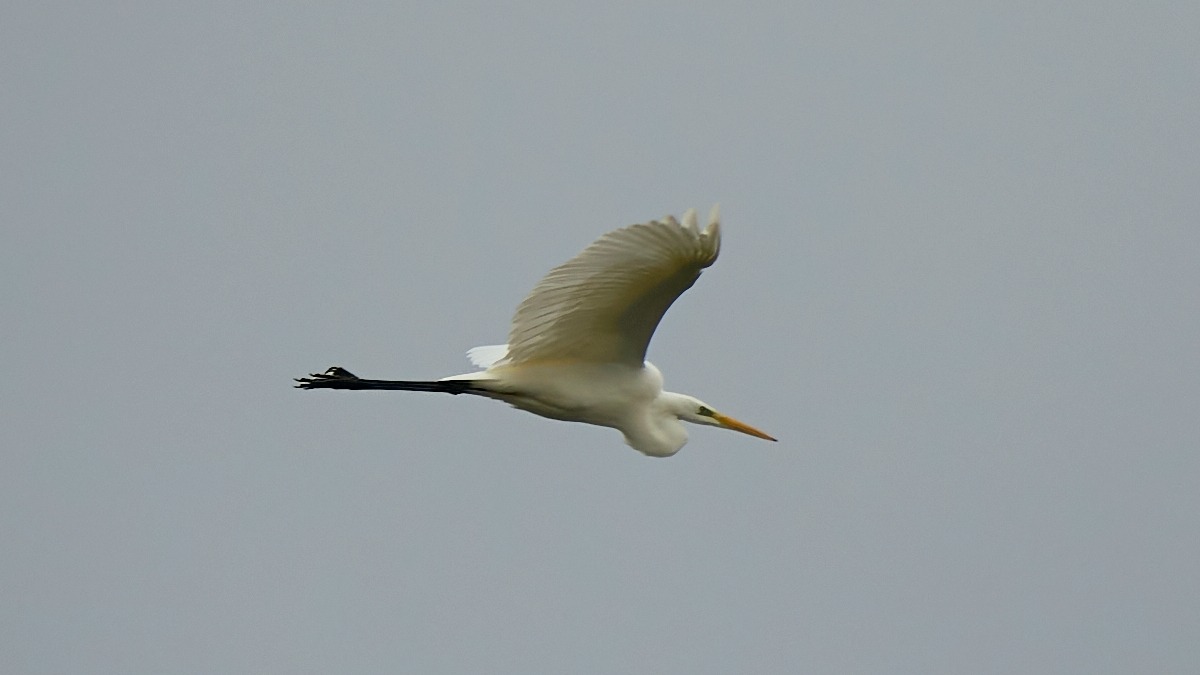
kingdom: Animalia
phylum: Chordata
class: Aves
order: Pelecaniformes
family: Ardeidae
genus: Ardea
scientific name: Ardea alba
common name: Sølvhejre
